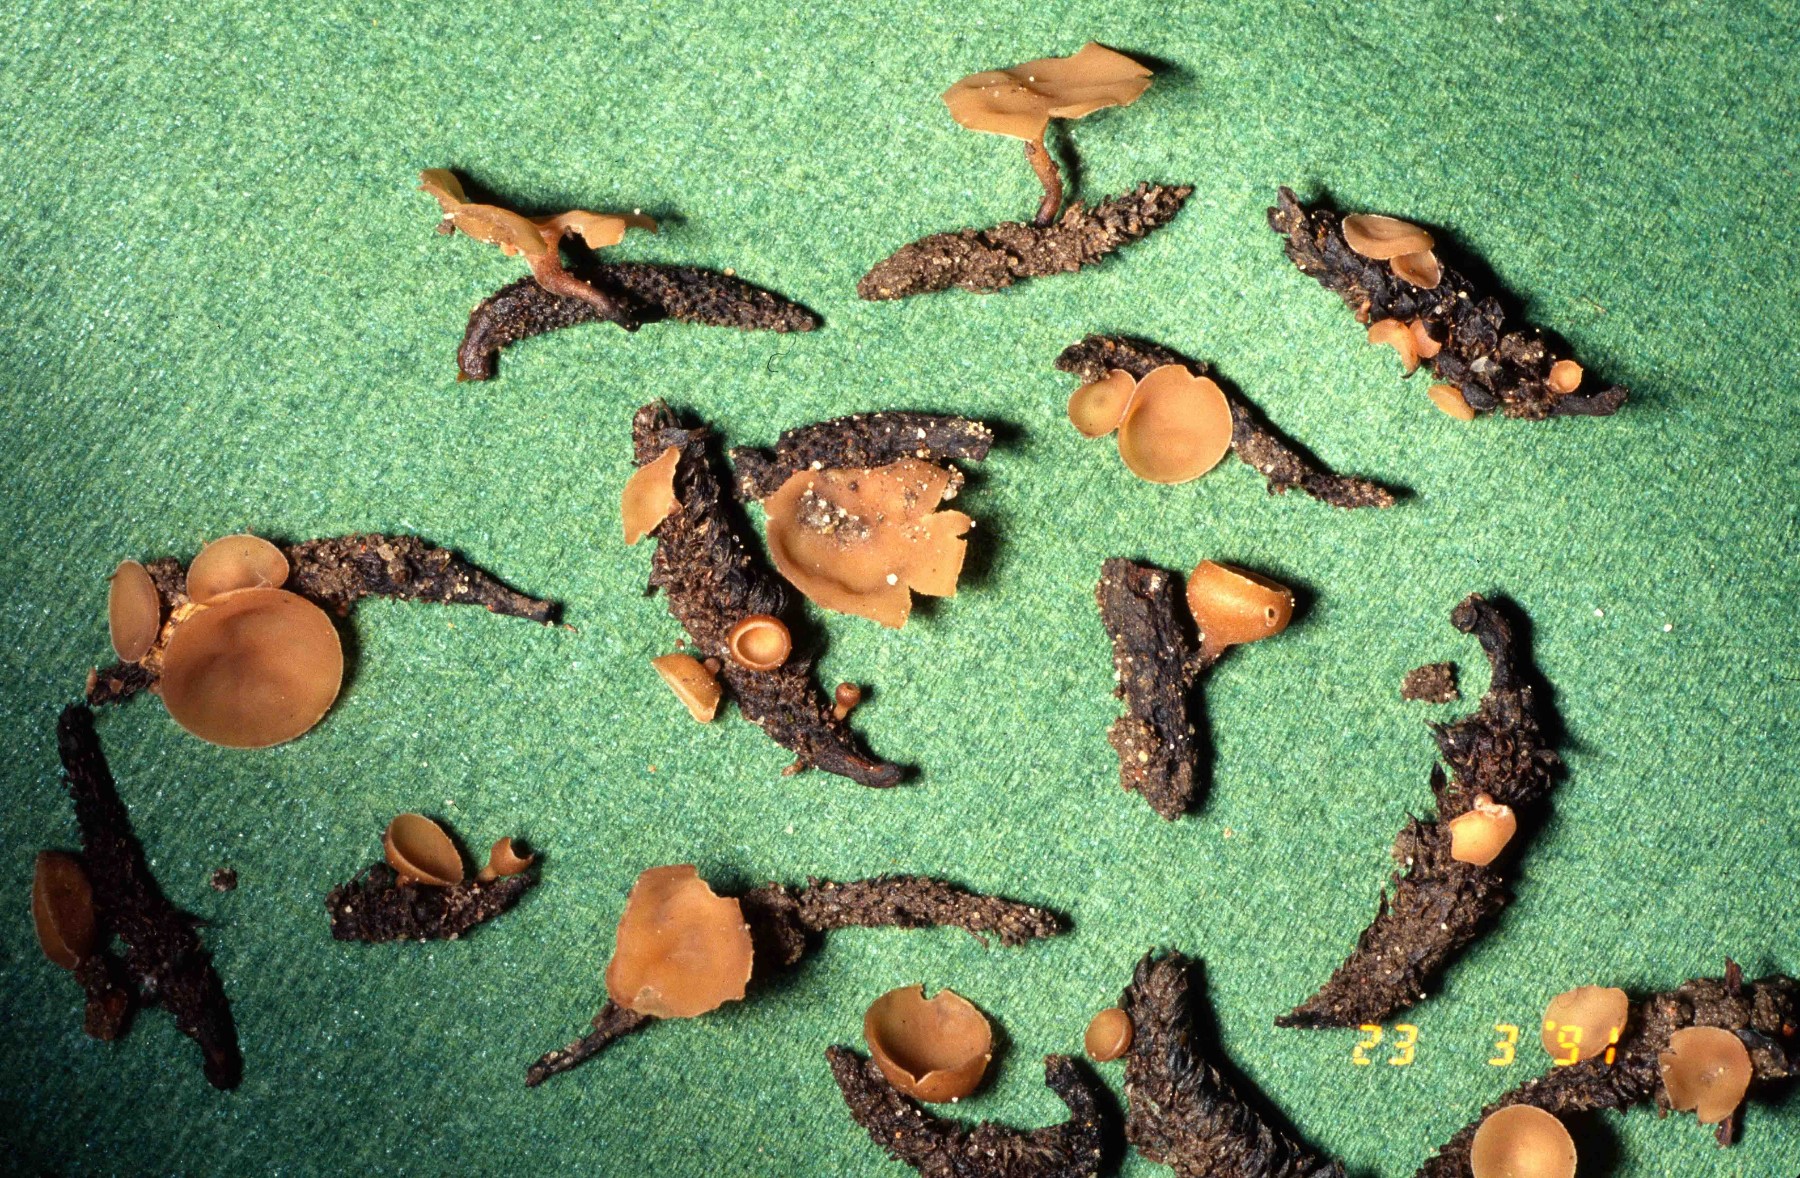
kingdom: Fungi
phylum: Ascomycota
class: Leotiomycetes
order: Helotiales
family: Sclerotiniaceae
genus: Ciboria
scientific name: Ciboria caucus
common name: rakle-knoldskive
